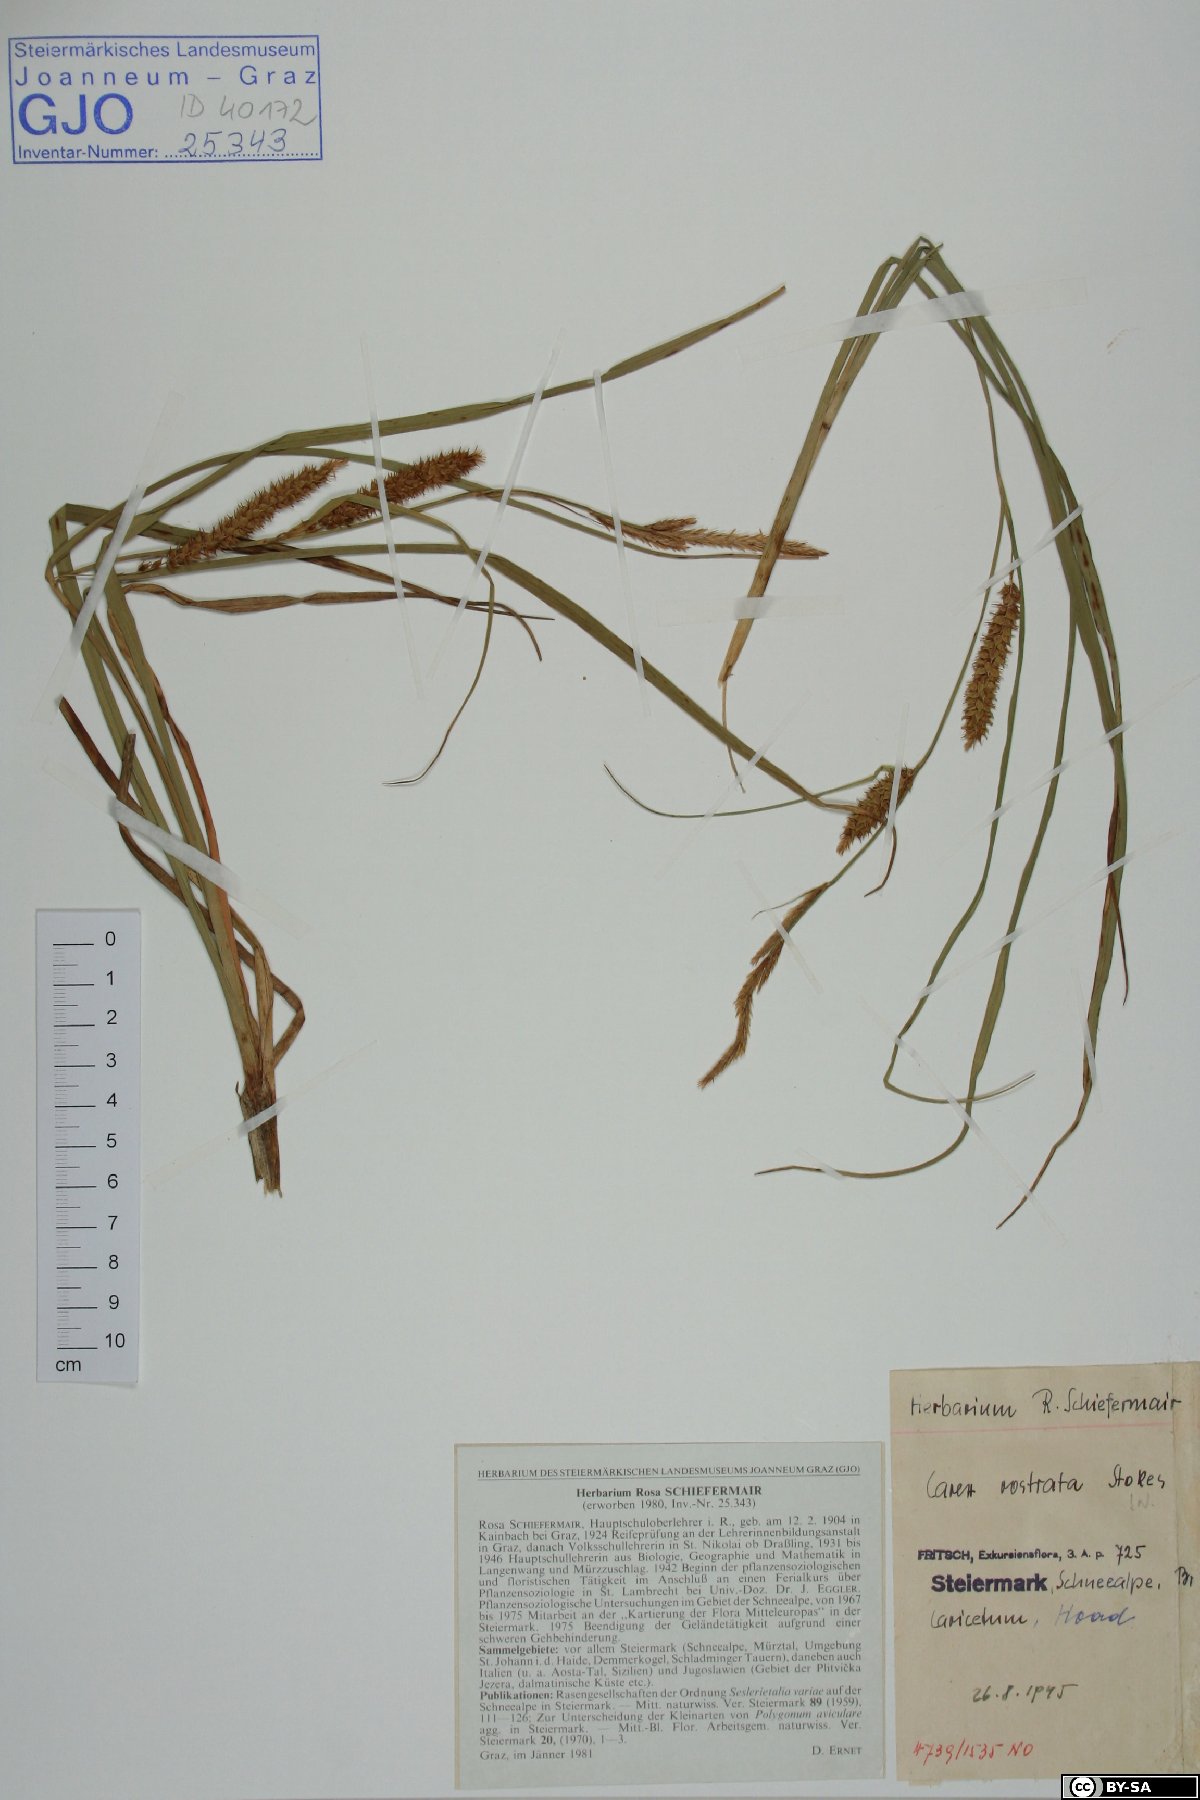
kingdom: Plantae
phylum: Tracheophyta
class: Liliopsida
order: Poales
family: Cyperaceae
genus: Carex
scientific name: Carex rostrata
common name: Bottle sedge
